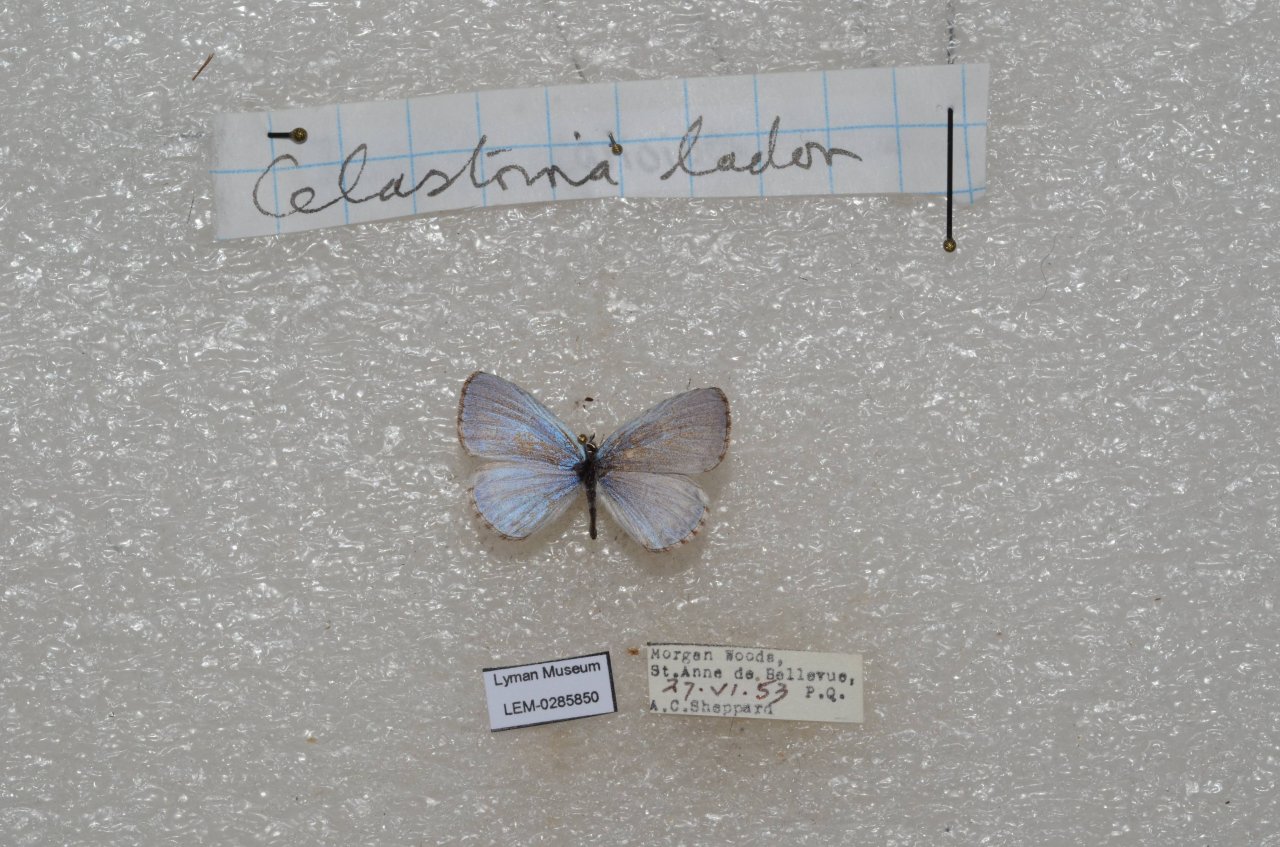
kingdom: Animalia
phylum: Arthropoda
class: Insecta
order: Lepidoptera
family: Lycaenidae
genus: Celastrina
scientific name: Celastrina lucia
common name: Northern Spring Azure
